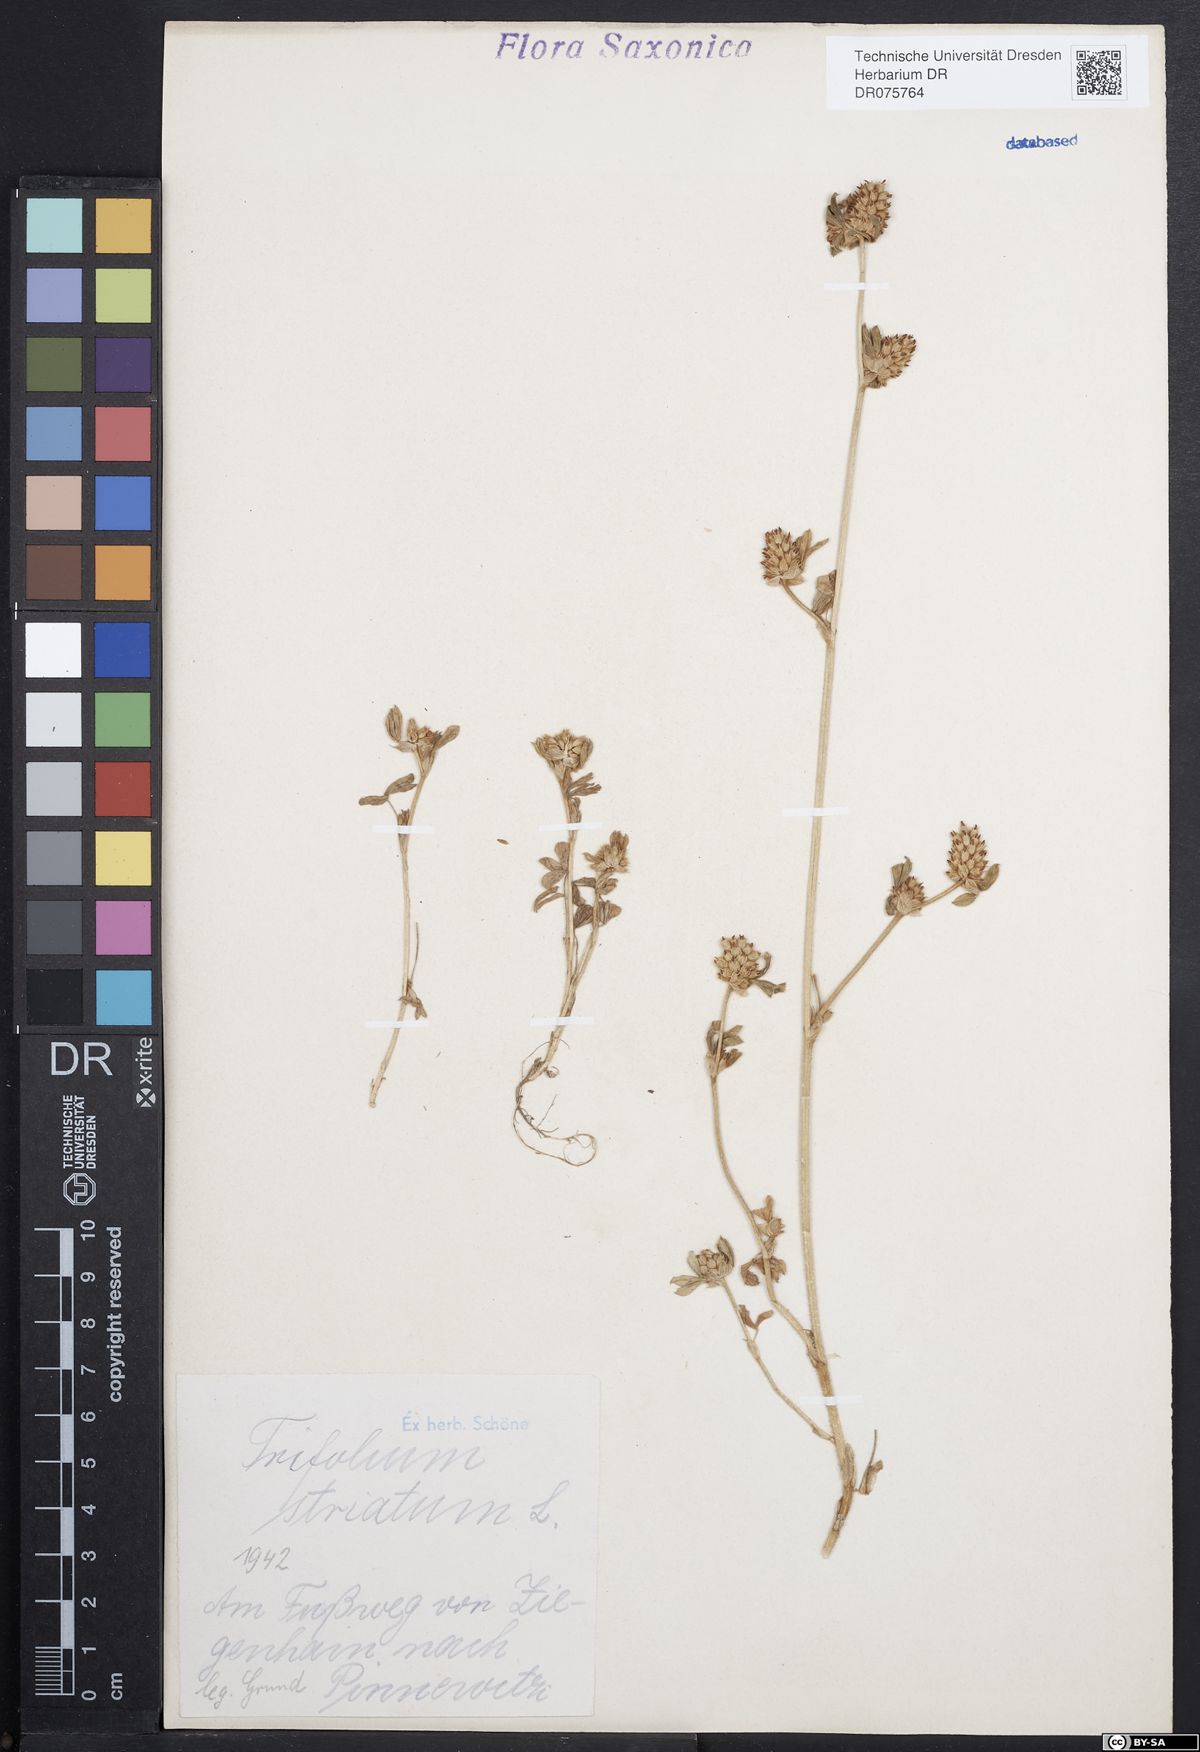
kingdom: Plantae
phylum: Tracheophyta
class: Magnoliopsida
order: Fabales
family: Fabaceae
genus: Trifolium
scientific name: Trifolium striatum
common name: Knotted clover
